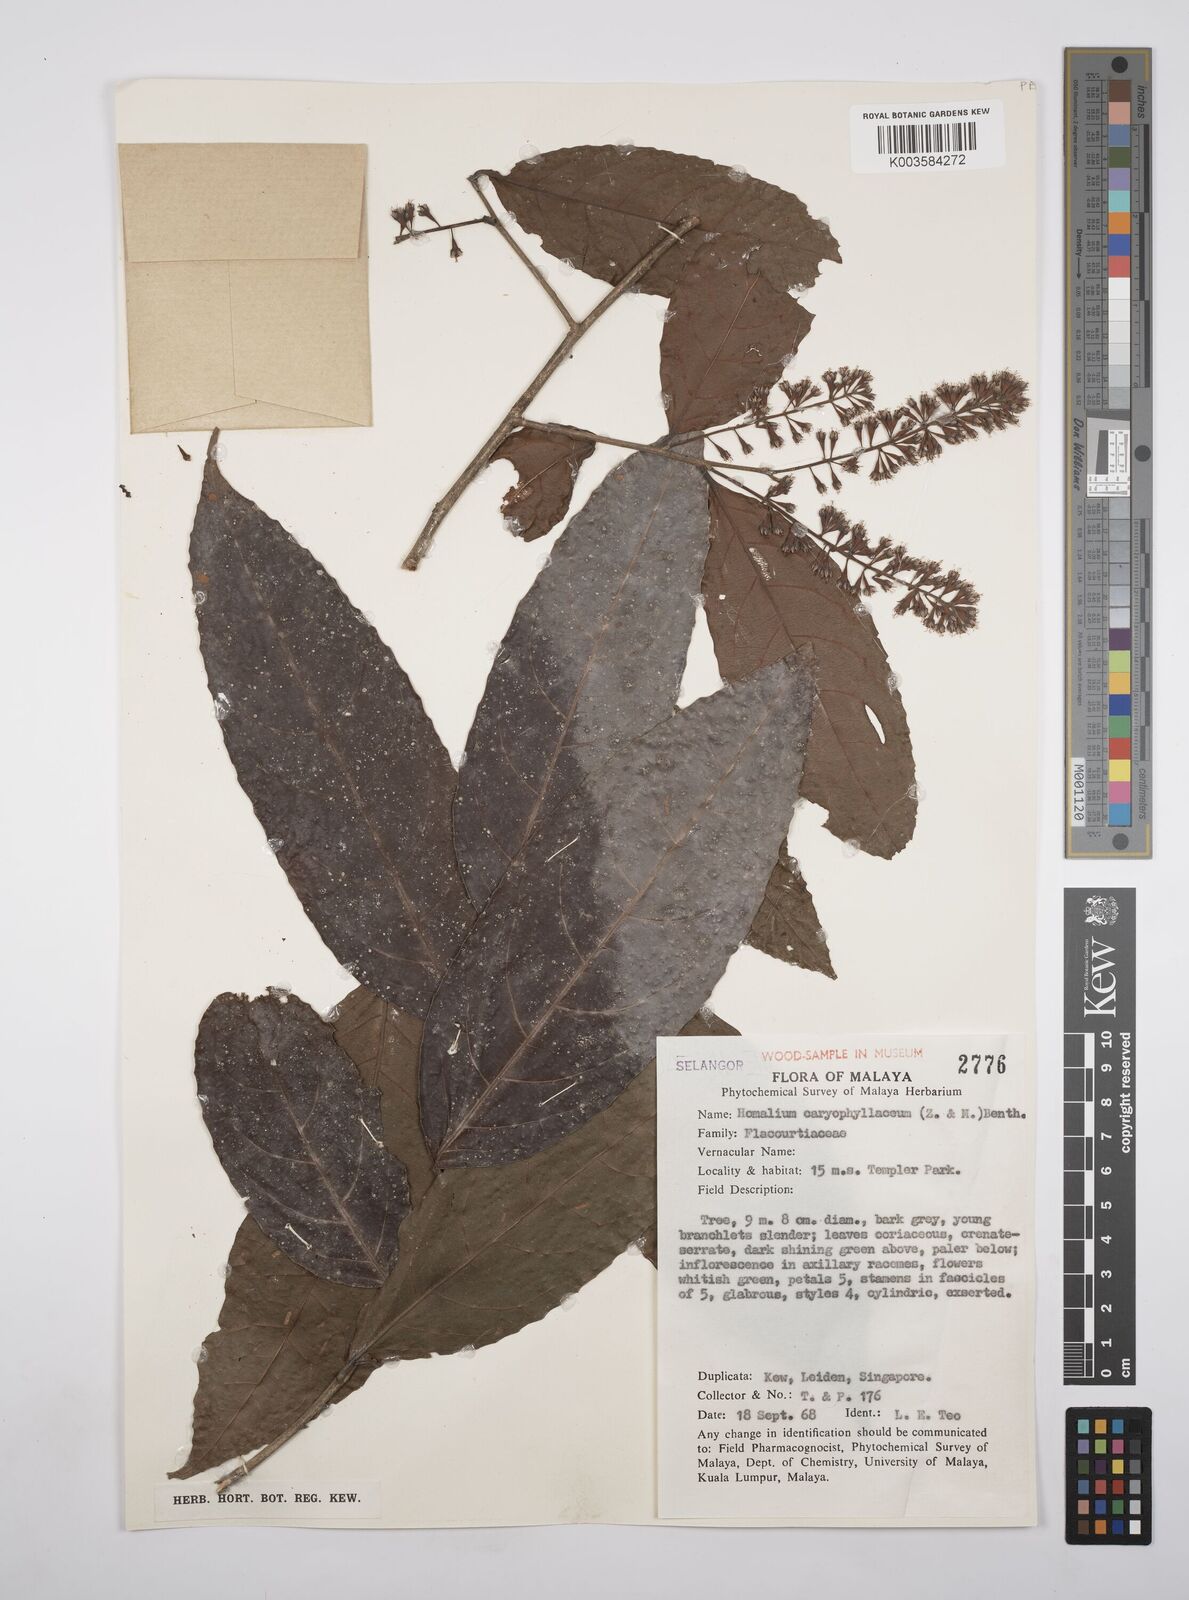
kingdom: Plantae
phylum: Tracheophyta
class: Magnoliopsida
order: Malpighiales
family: Salicaceae
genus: Homalium
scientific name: Homalium caryophyllaceum
